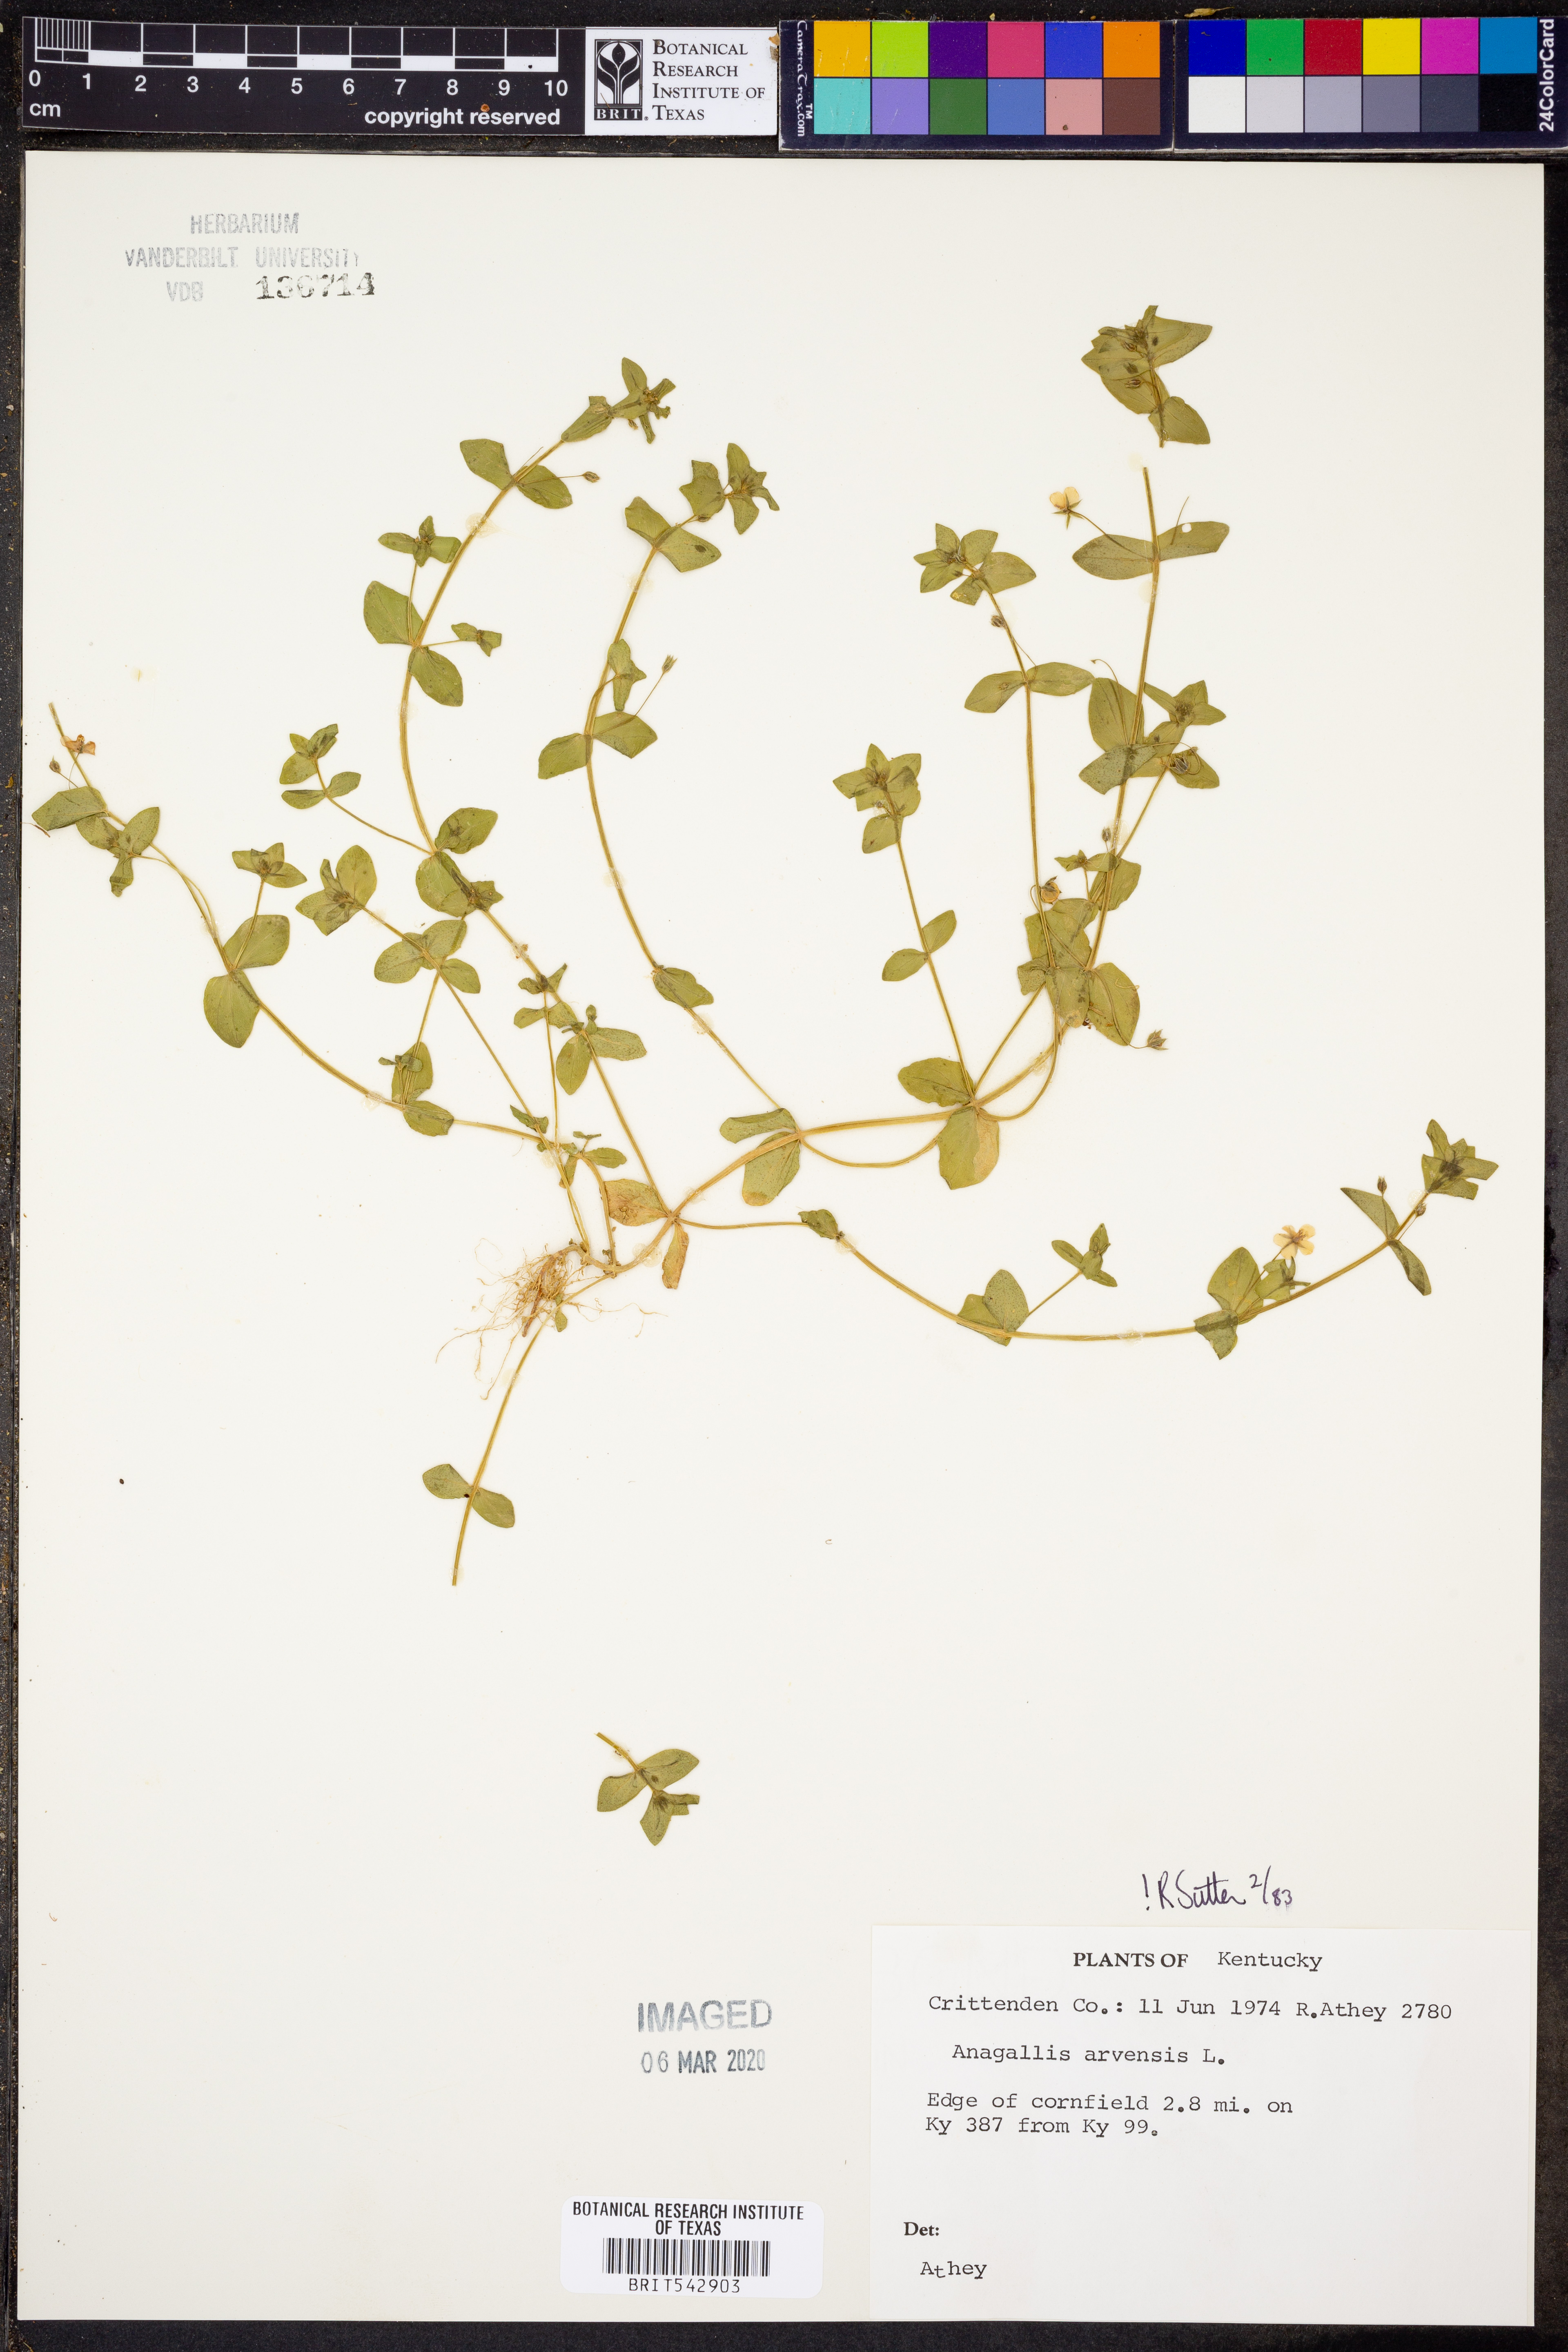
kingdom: Plantae
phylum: Tracheophyta
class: Magnoliopsida
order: Ericales
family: Primulaceae
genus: Lysimachia
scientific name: Lysimachia arvensis
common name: Scarlet pimpernel
